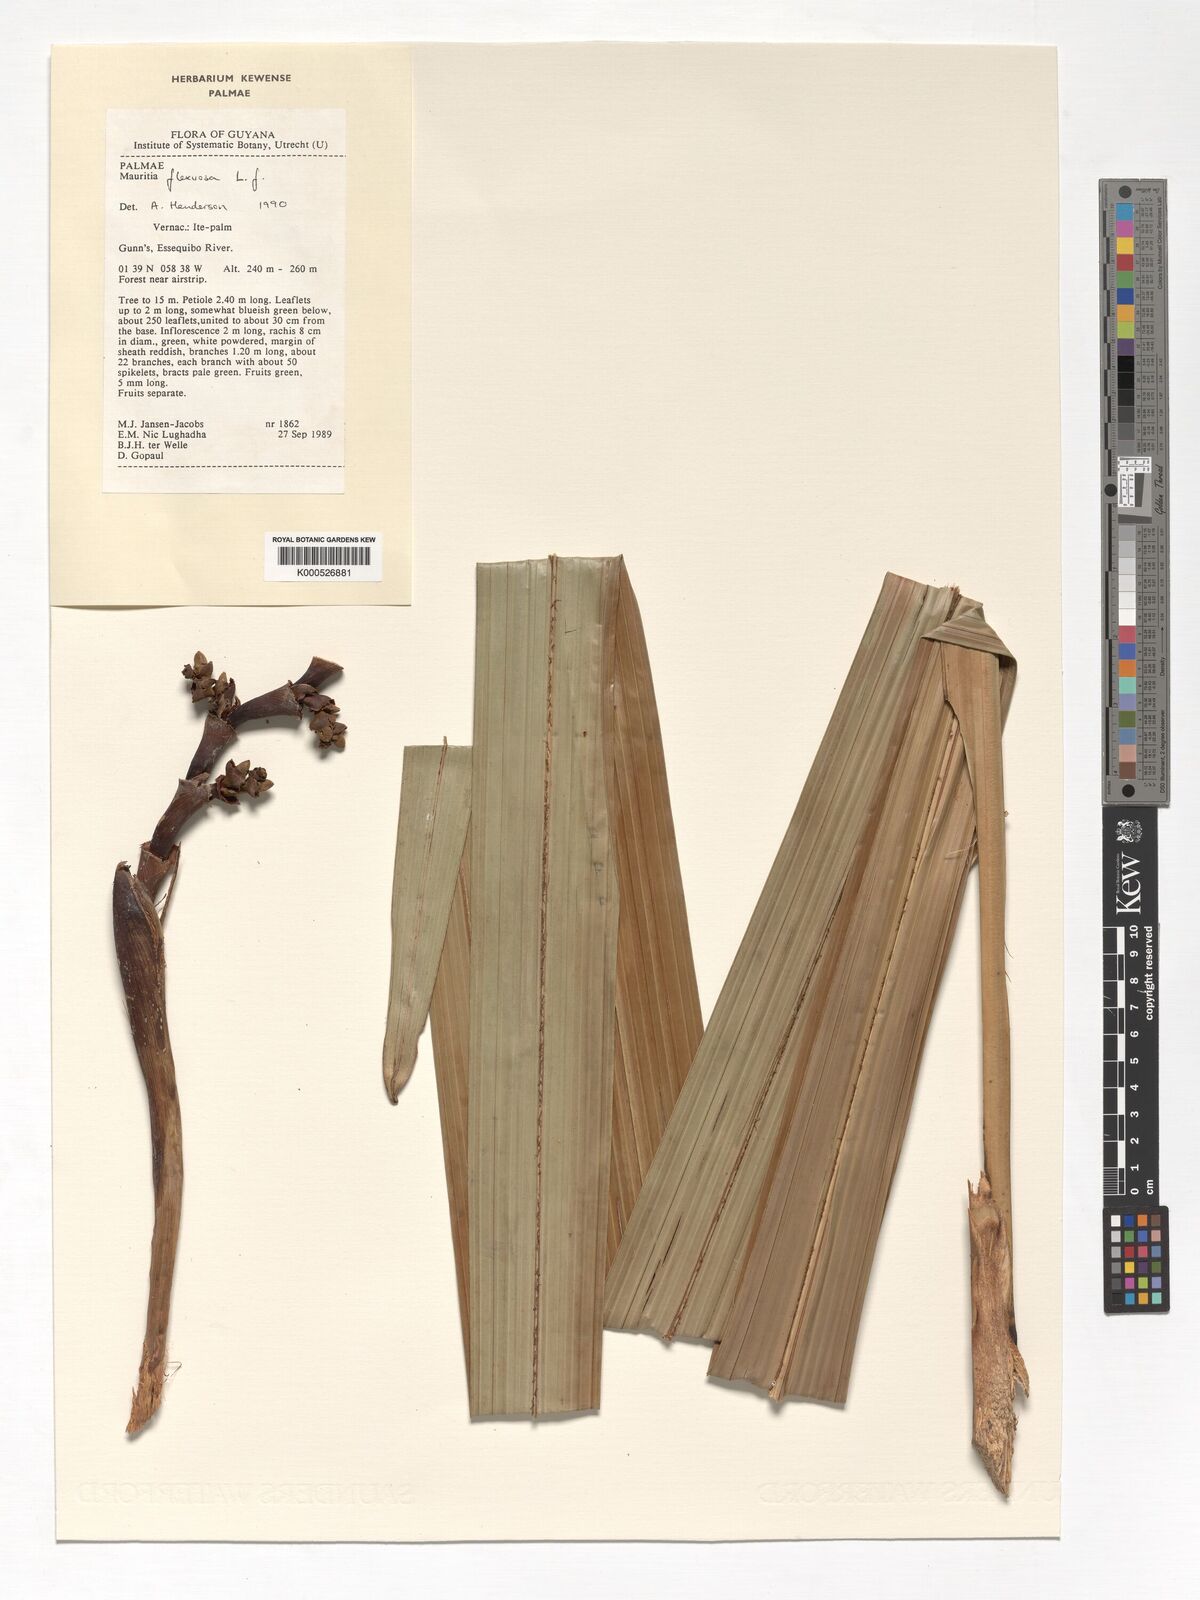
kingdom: Plantae
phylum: Tracheophyta
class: Liliopsida
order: Arecales
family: Arecaceae
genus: Mauritia
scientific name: Mauritia flexuosa
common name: Tree-of-life
